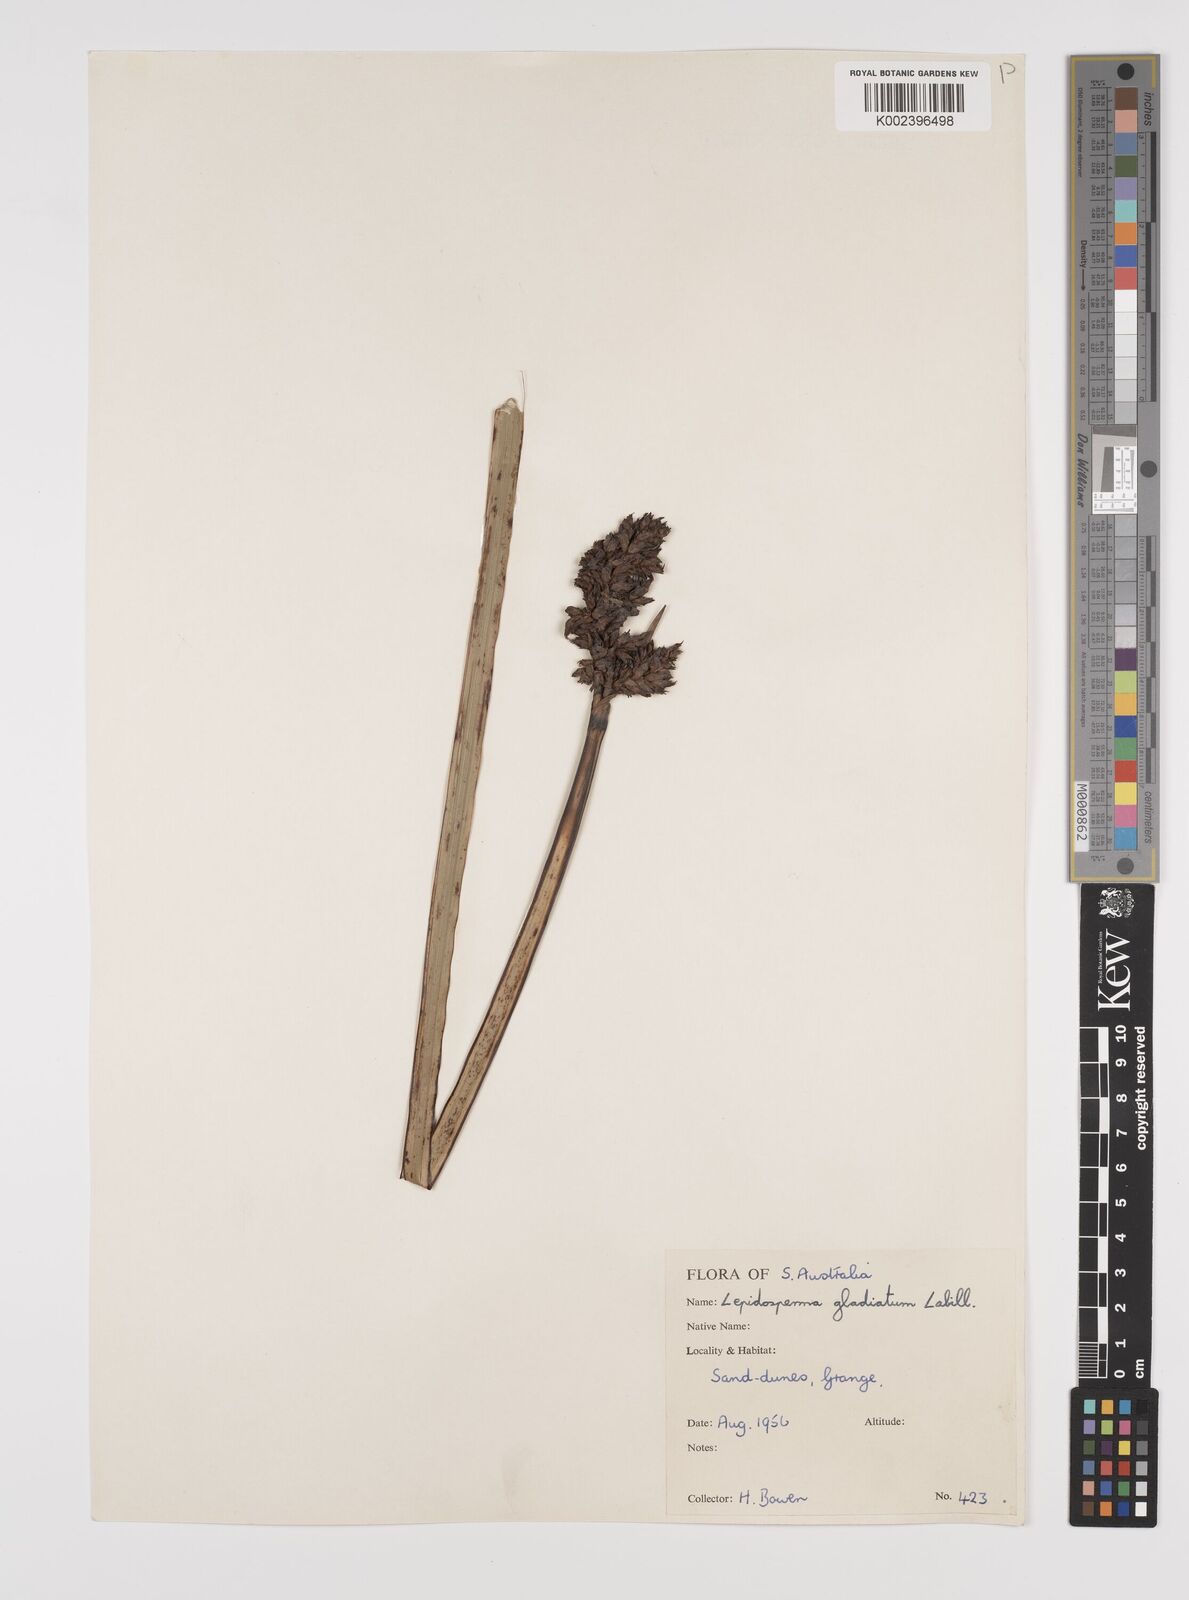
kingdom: Plantae
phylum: Tracheophyta
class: Liliopsida
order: Poales
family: Cyperaceae
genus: Lepidosperma
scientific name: Lepidosperma gladiatum
